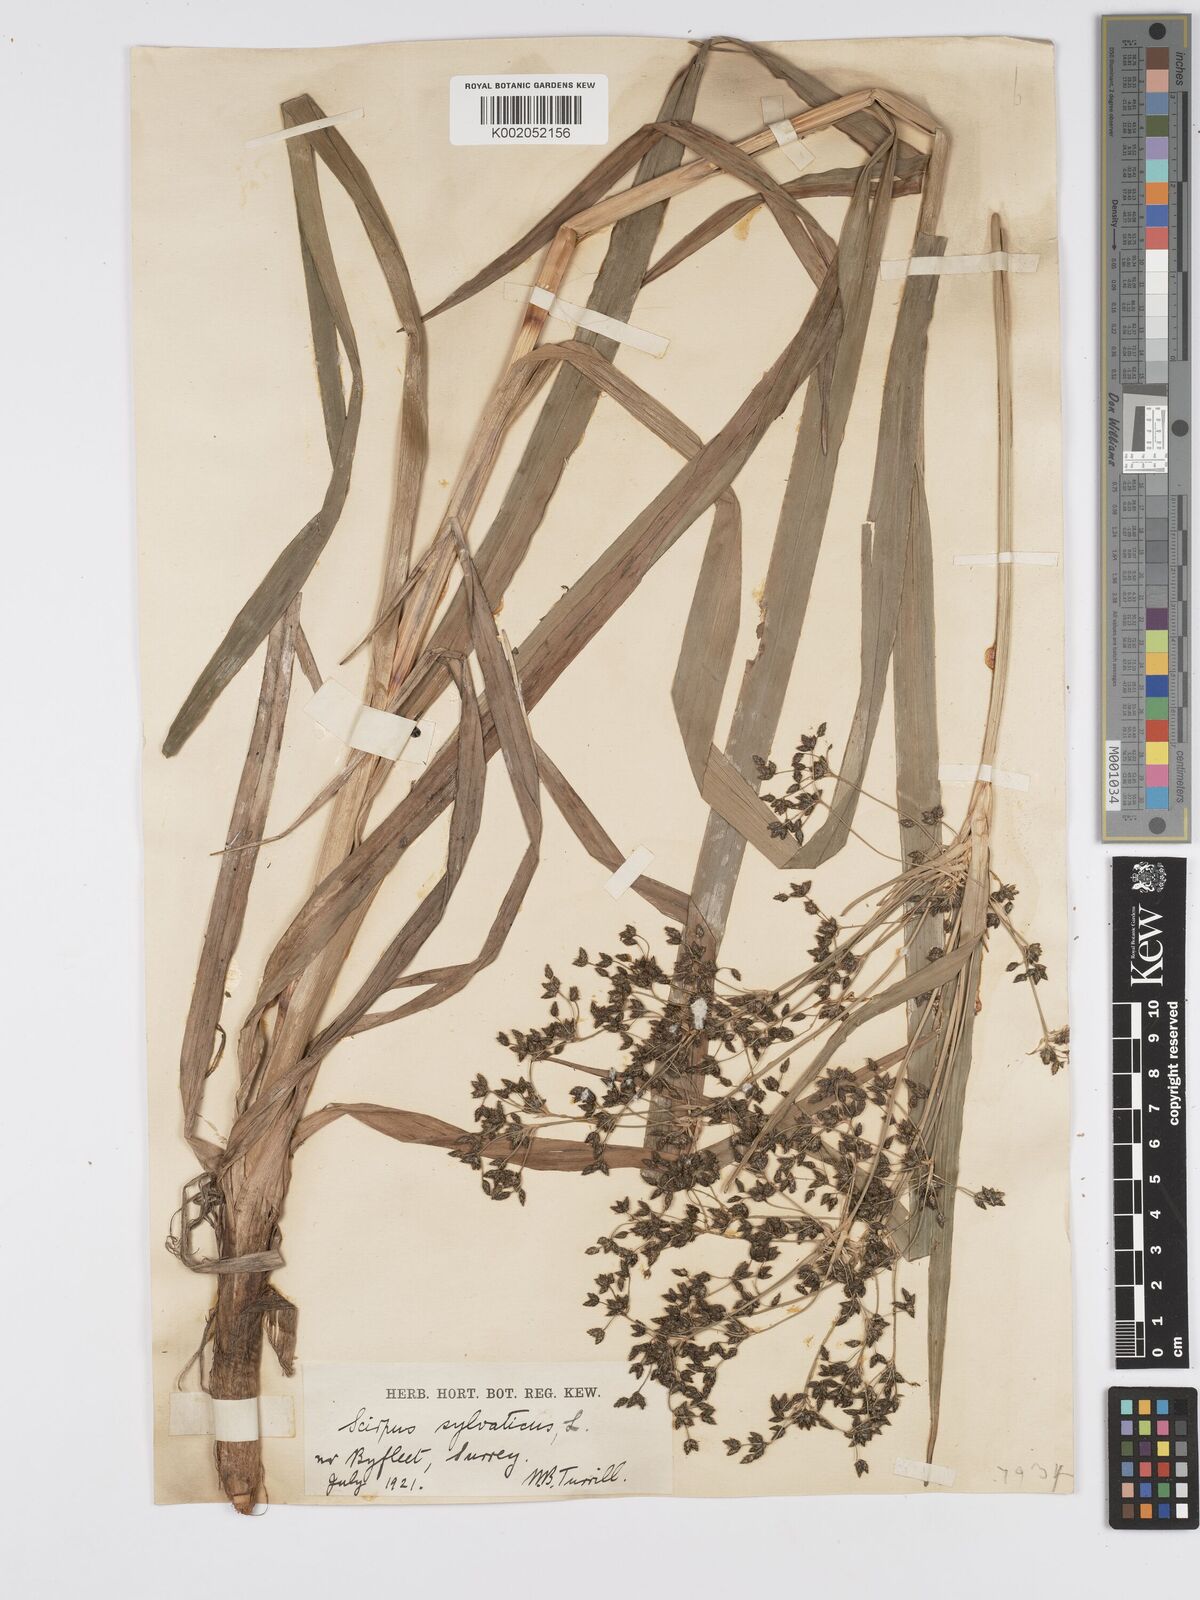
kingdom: Plantae
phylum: Tracheophyta
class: Liliopsida
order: Poales
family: Cyperaceae
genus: Scirpus
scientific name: Scirpus sylvaticus
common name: Wood club-rush
